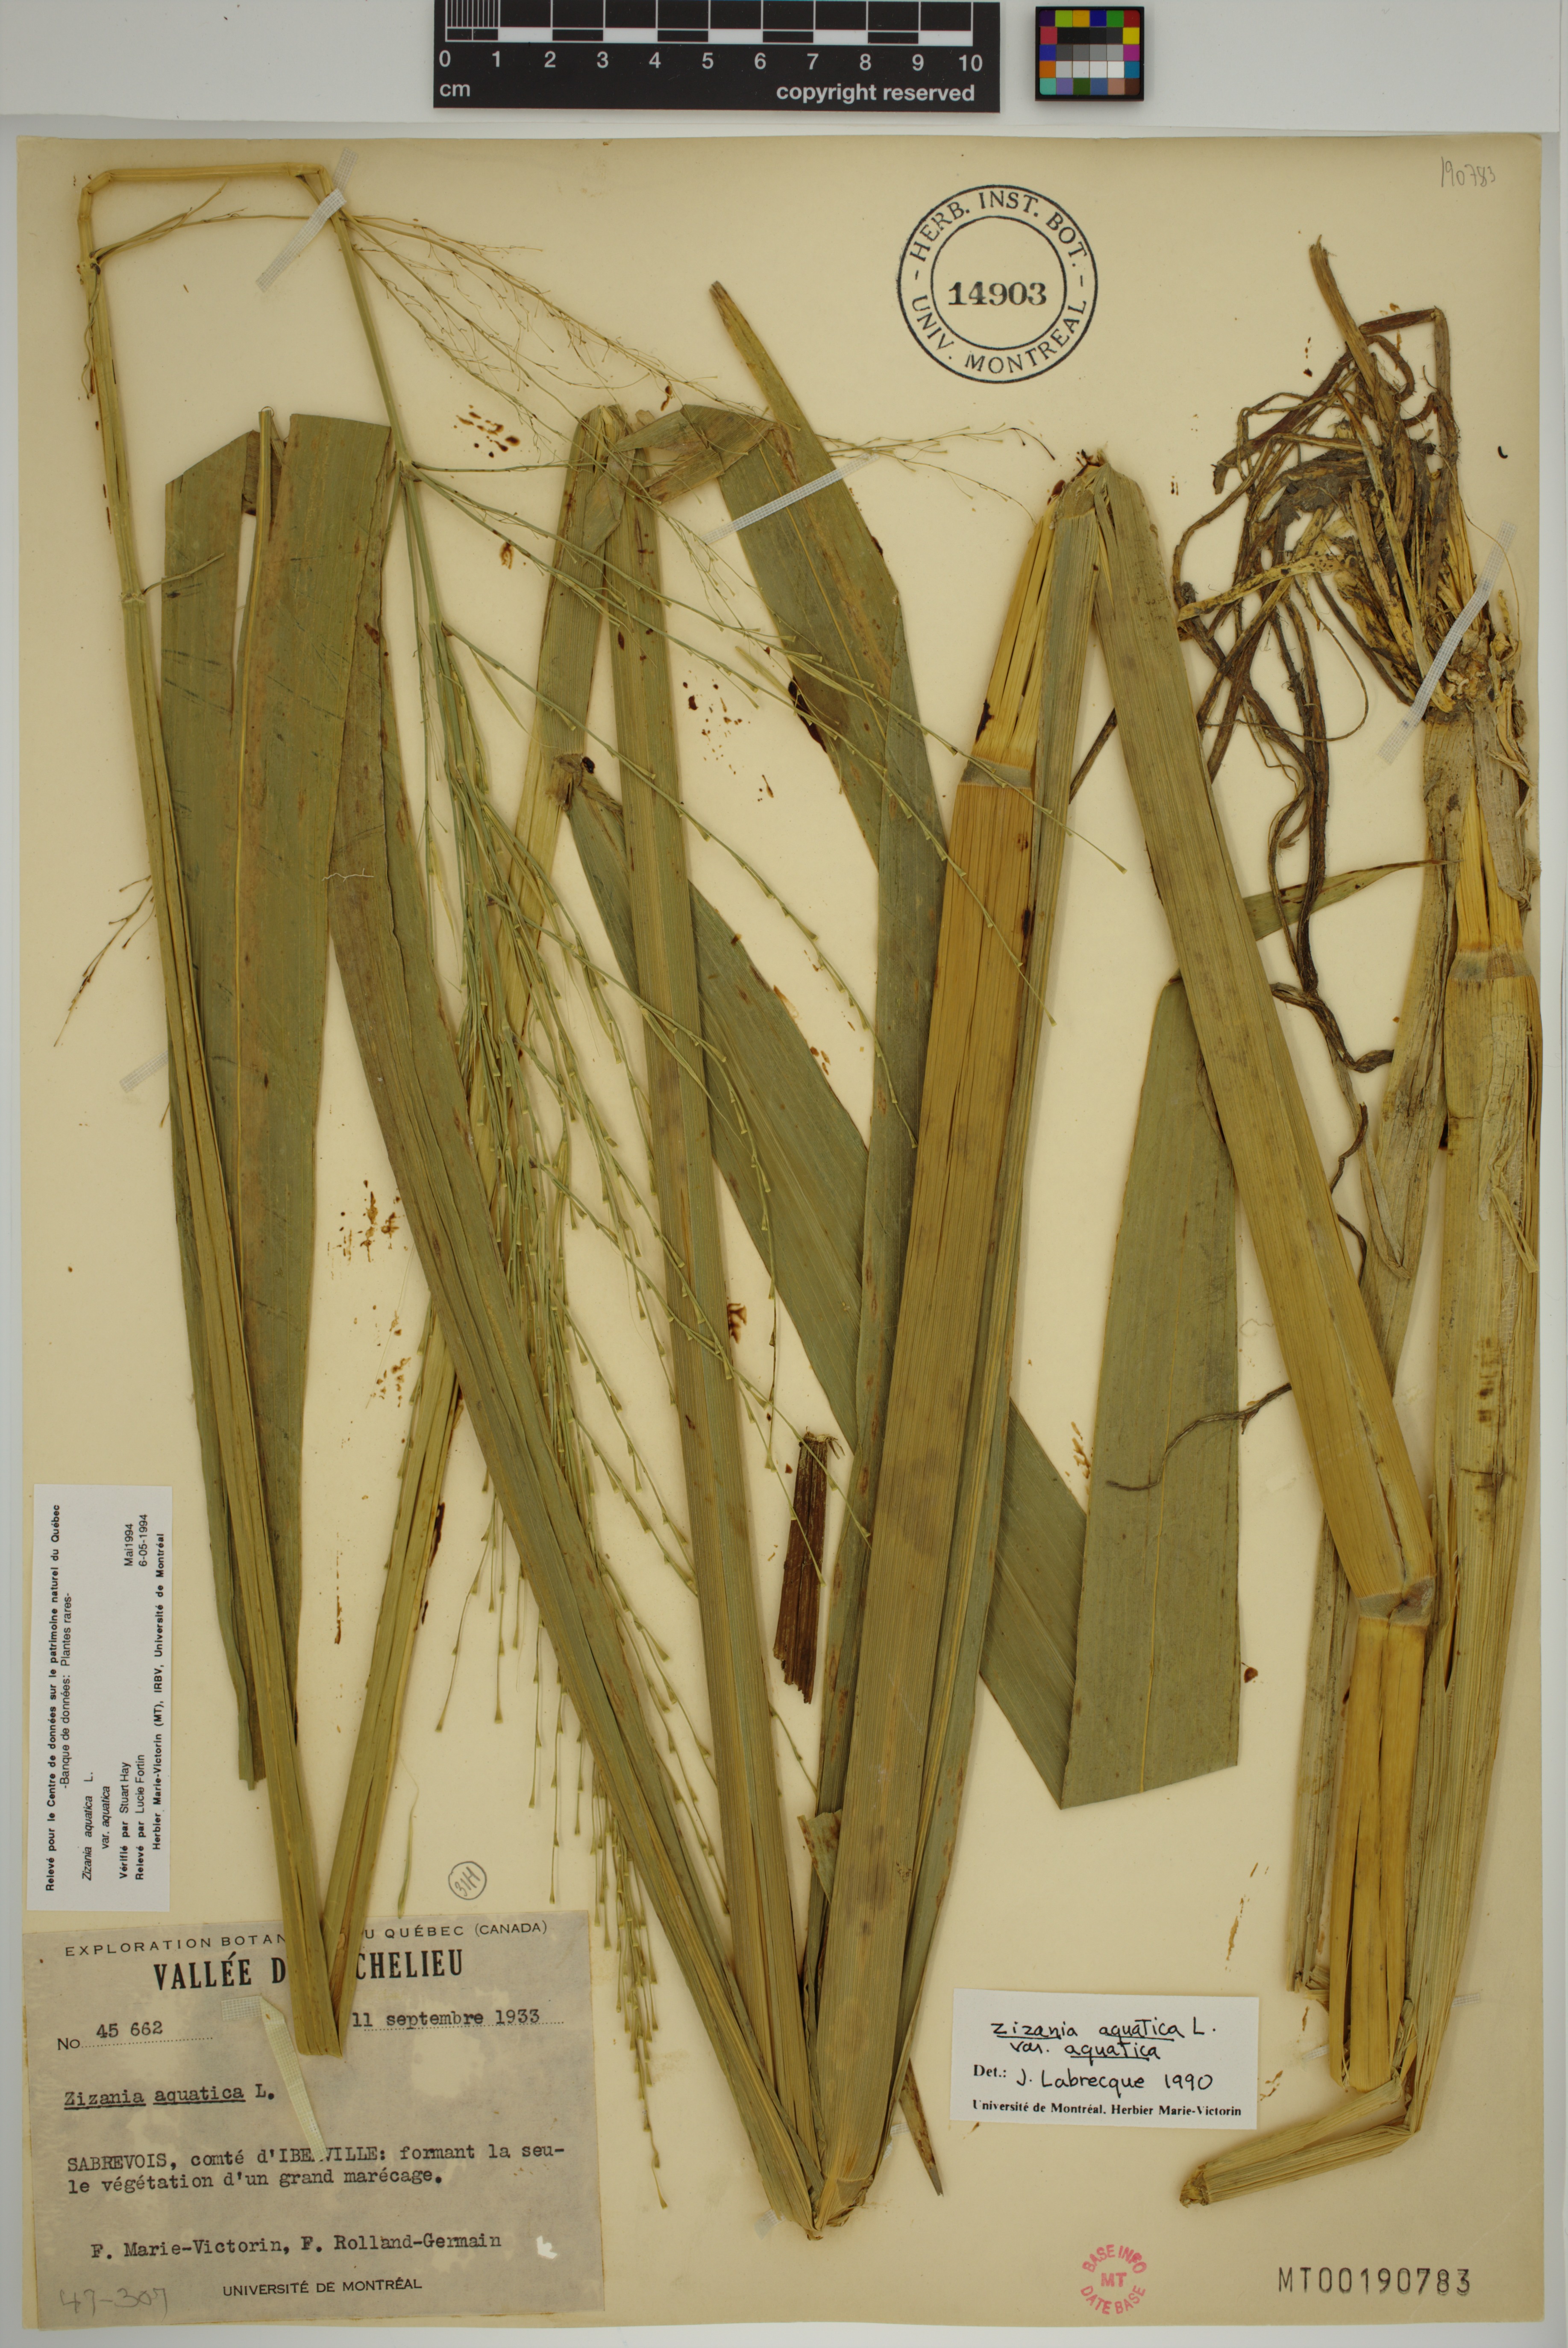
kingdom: Plantae
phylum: Tracheophyta
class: Liliopsida
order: Poales
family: Poaceae
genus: Zizania
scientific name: Zizania aquatica
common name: Annual wildrice
